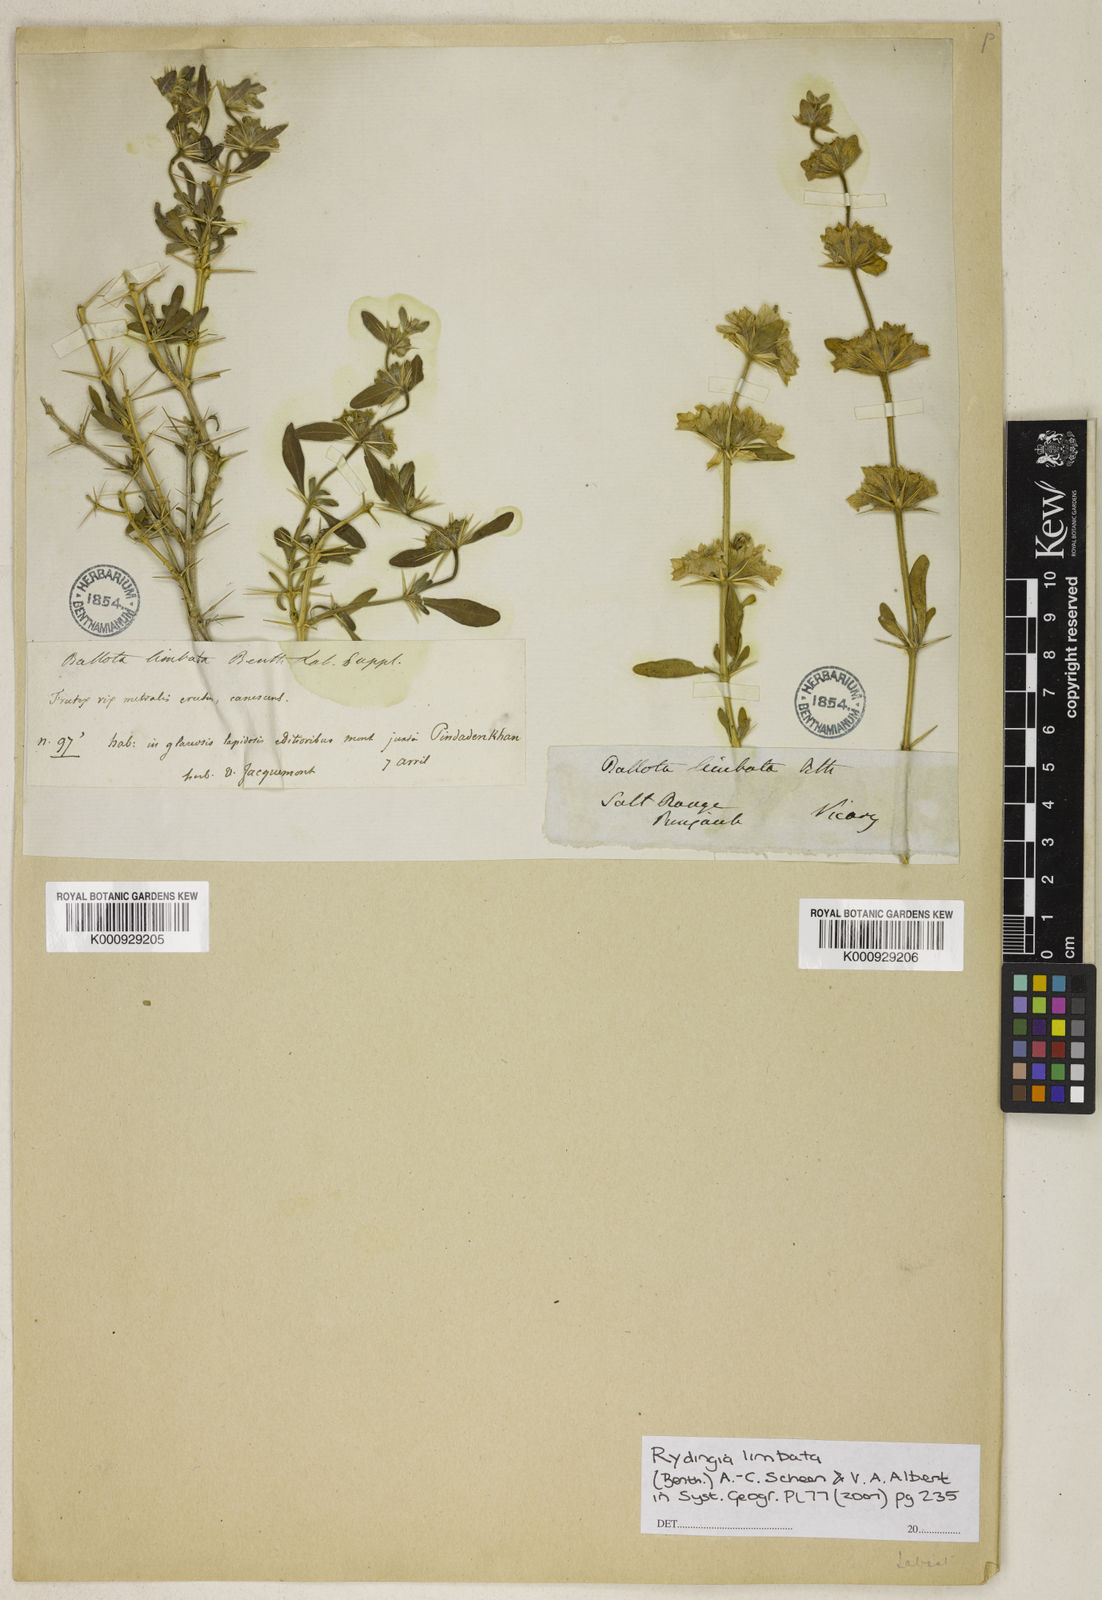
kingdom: Plantae
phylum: Tracheophyta
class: Magnoliopsida
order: Lamiales
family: Lamiaceae
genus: Rydingia
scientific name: Rydingia limbata
